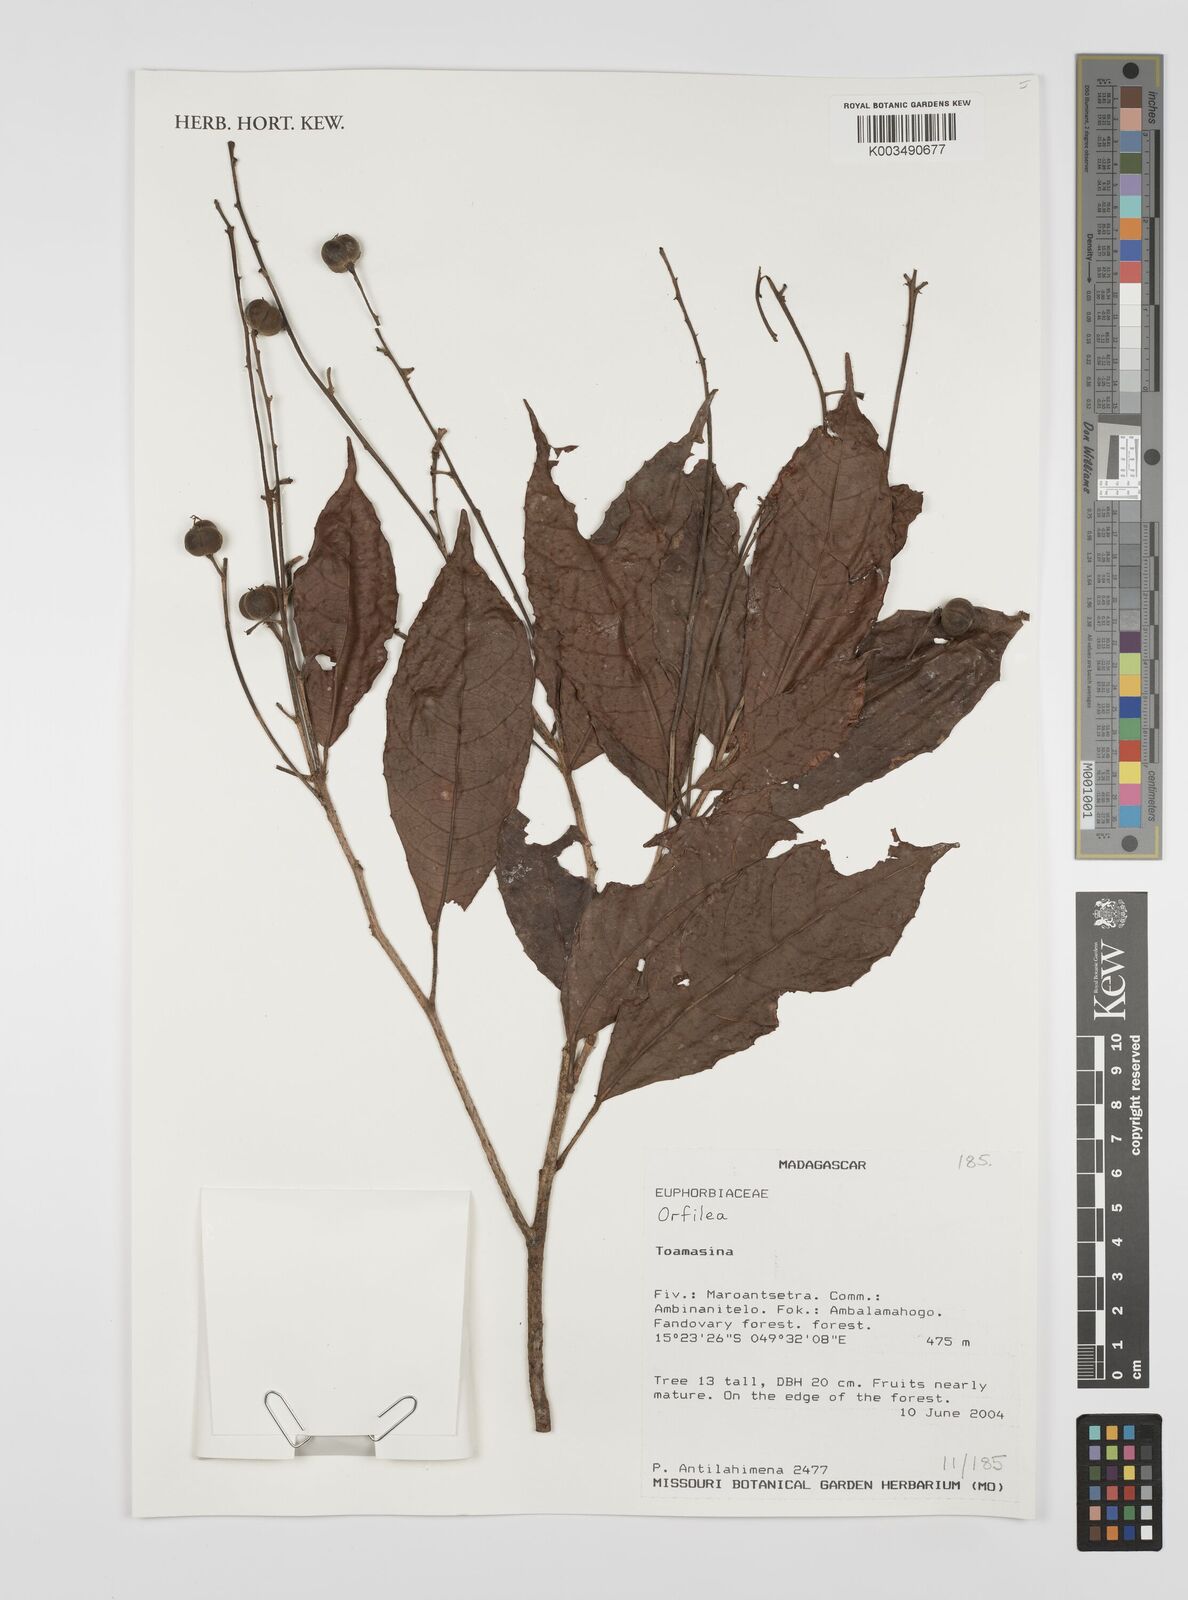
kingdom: Plantae
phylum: Tracheophyta
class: Magnoliopsida
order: Malpighiales
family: Euphorbiaceae
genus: Orfilea
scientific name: Orfilea
